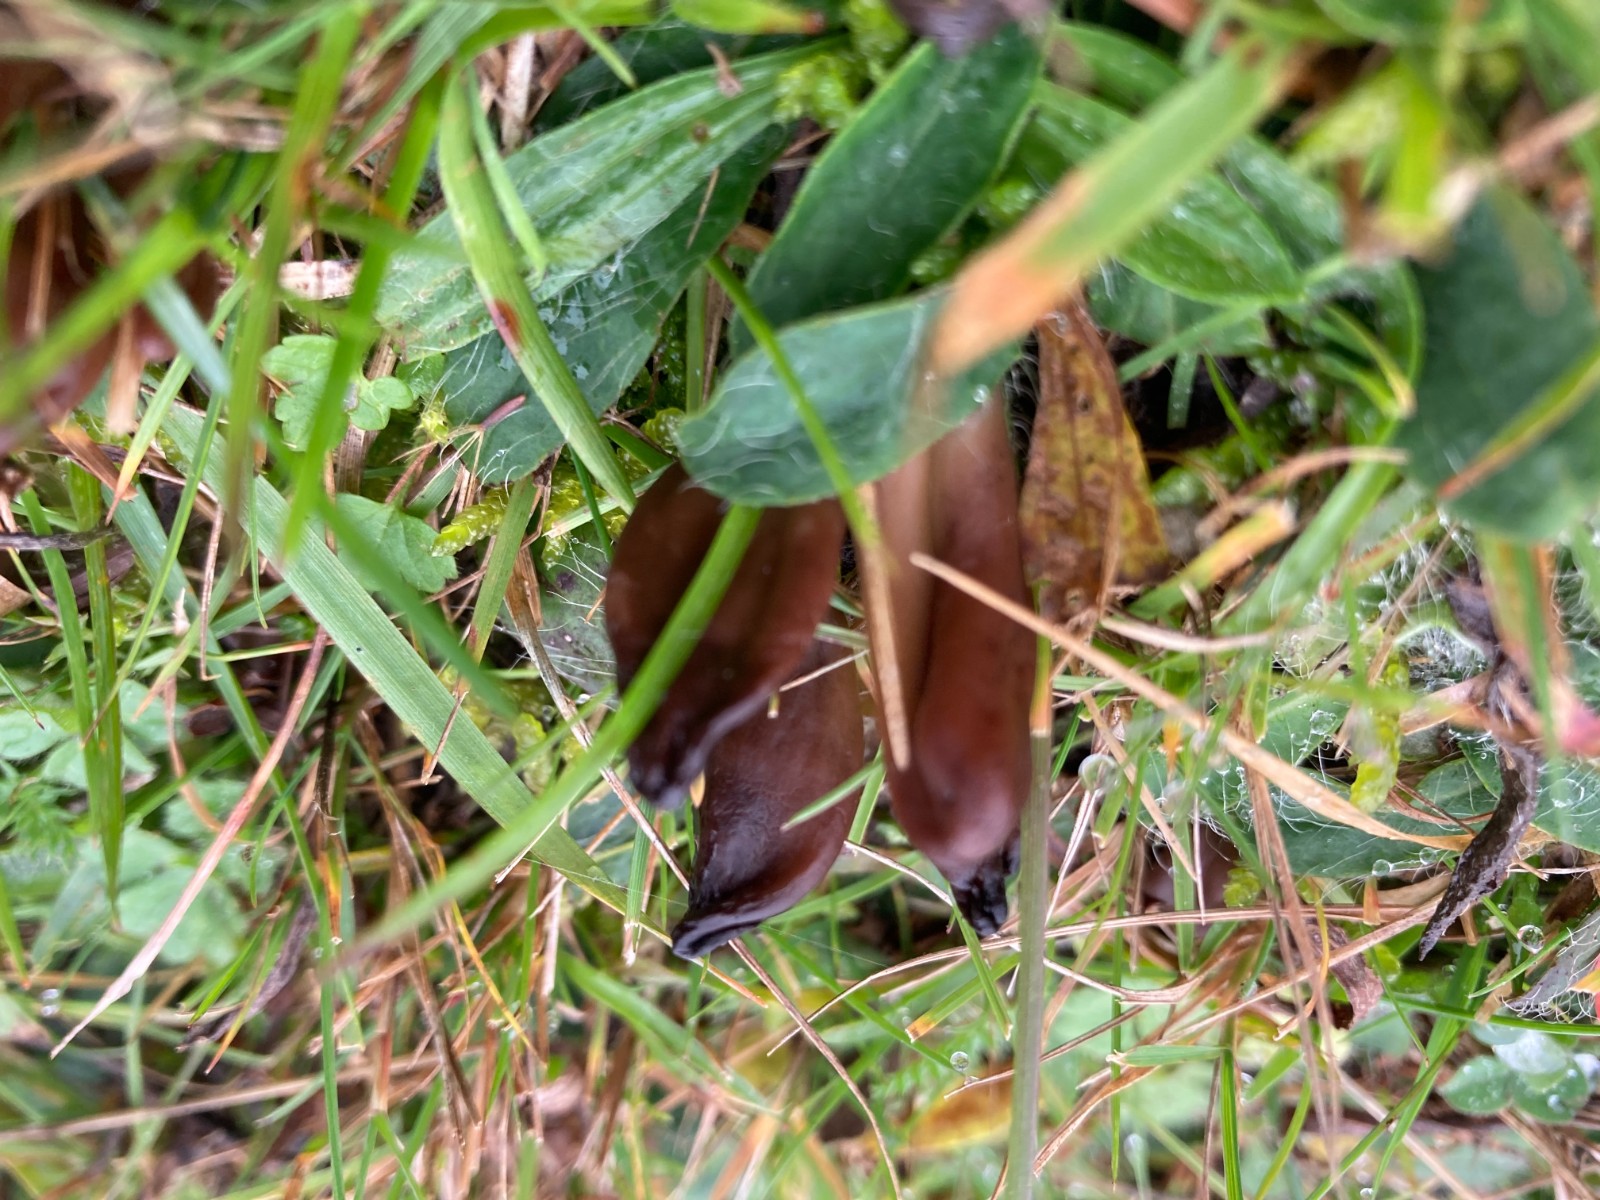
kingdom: Fungi
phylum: Ascomycota
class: Leotiomycetes
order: Helotiales
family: Lachnaceae
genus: Microglossum
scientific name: Microglossum
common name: farvetunge
